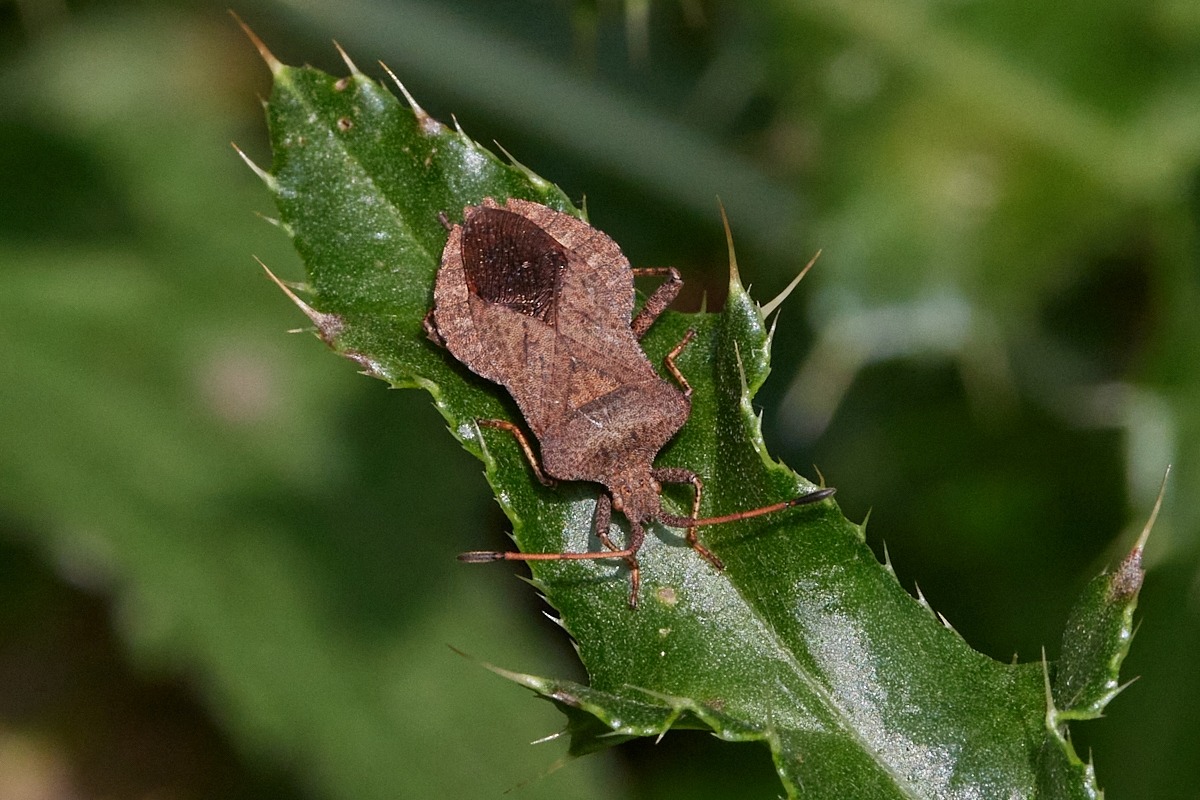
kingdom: Animalia
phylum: Arthropoda
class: Insecta
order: Hemiptera
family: Coreidae
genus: Coreus
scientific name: Coreus marginatus
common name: Skræppetæge
